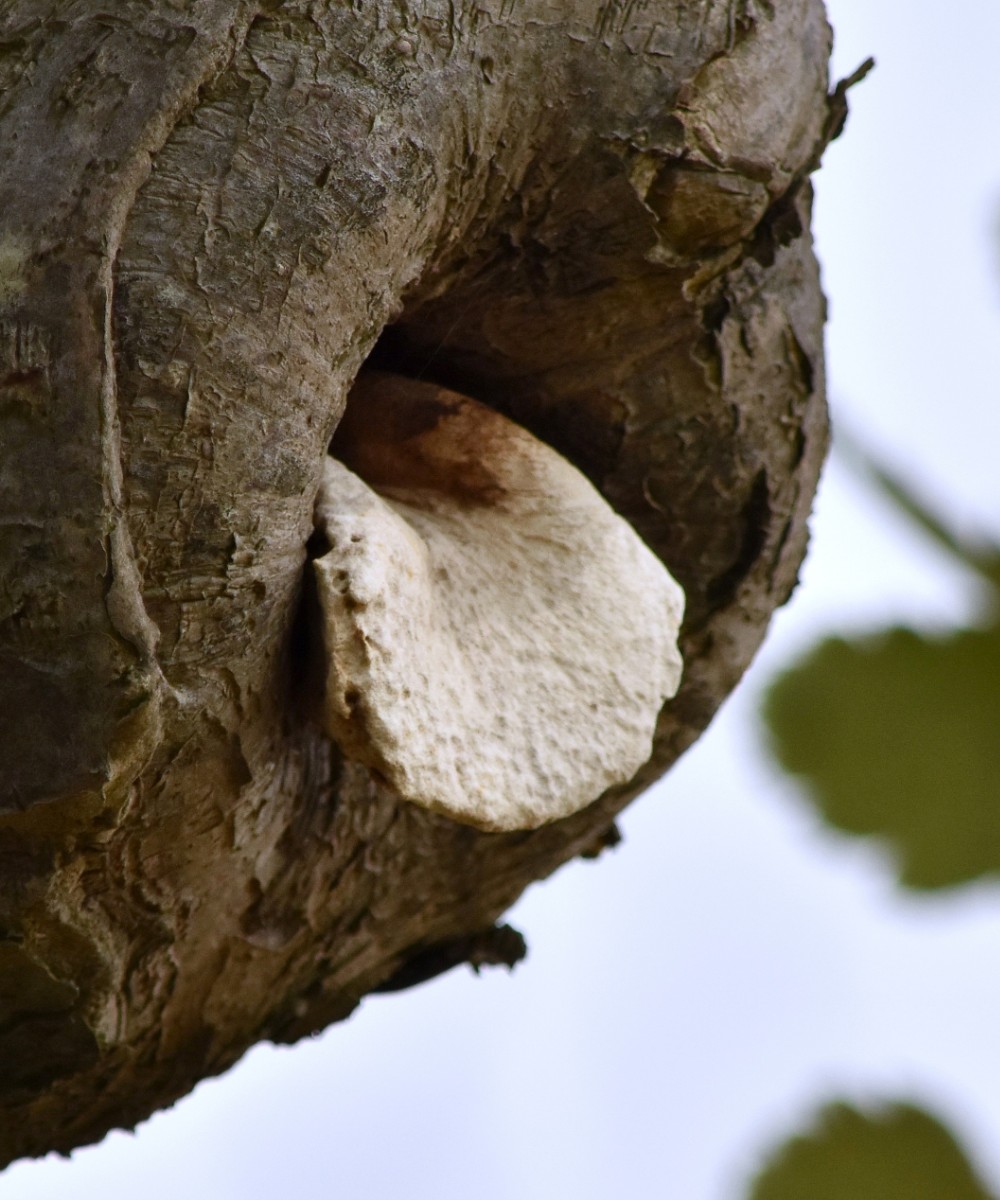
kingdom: Fungi
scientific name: Fungi
